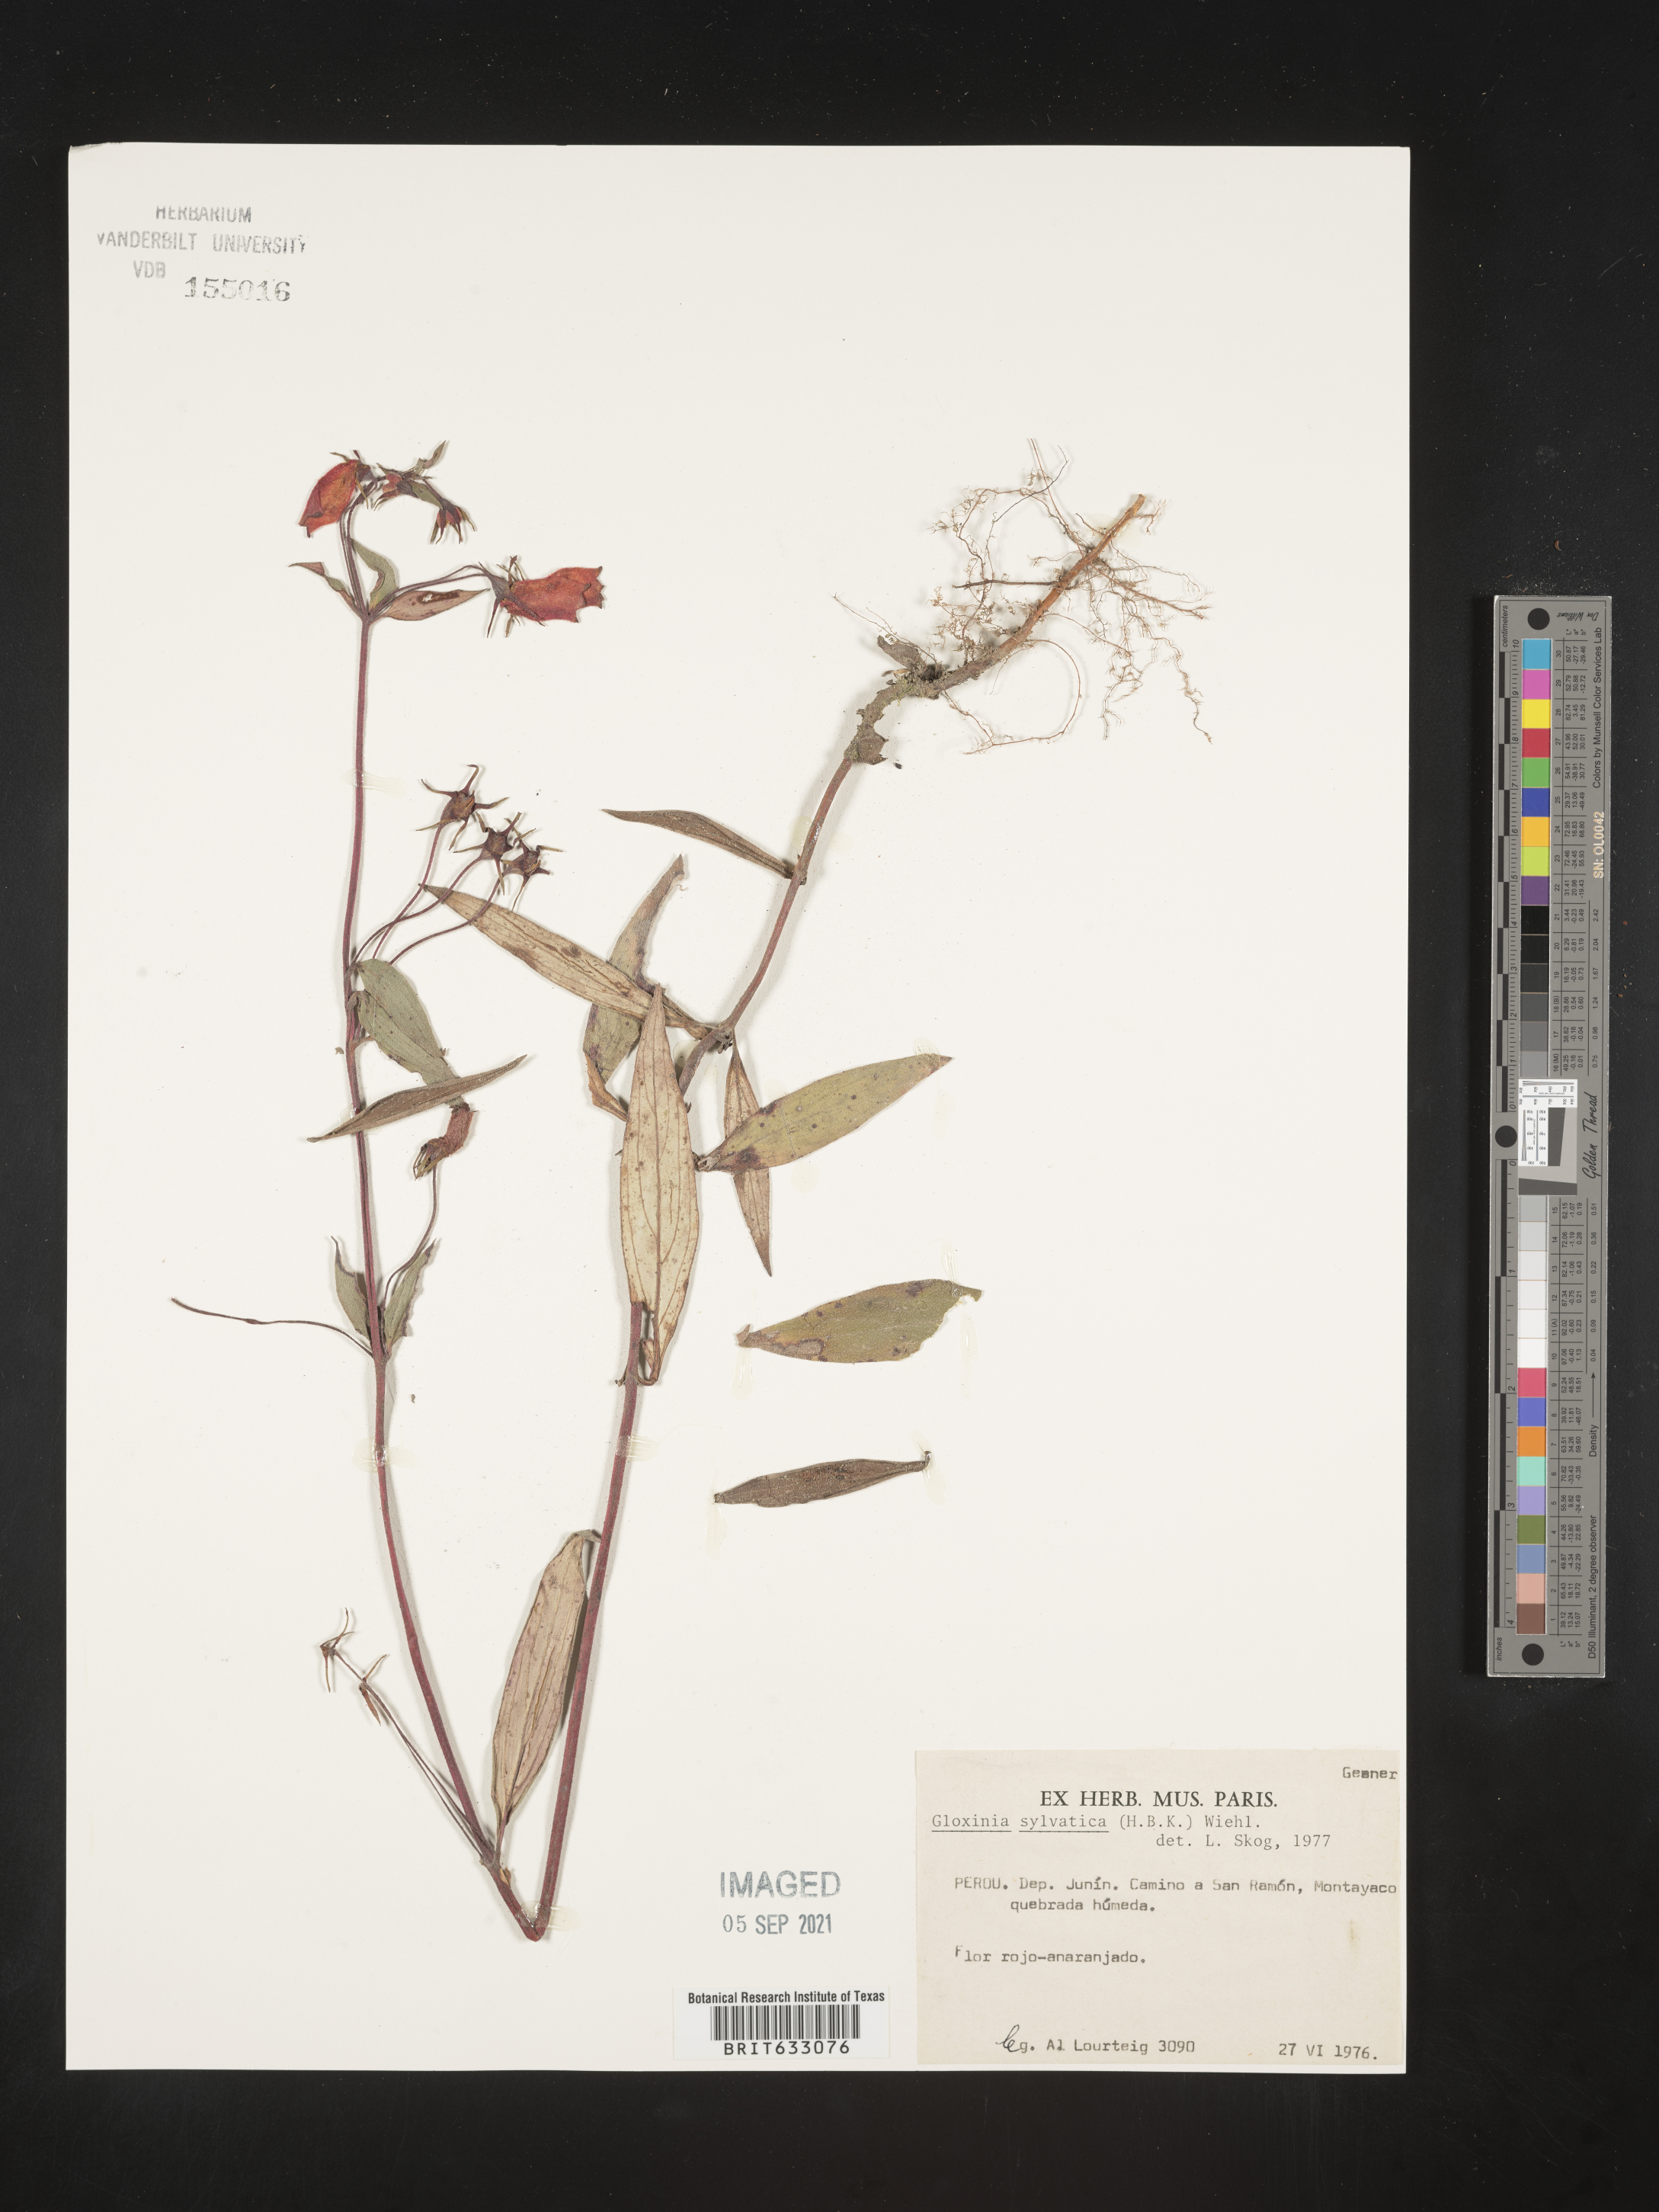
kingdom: Plantae
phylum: Tracheophyta
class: Magnoliopsida
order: Lamiales
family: Gesneriaceae
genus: Seemannia
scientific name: Seemannia sylvatica
